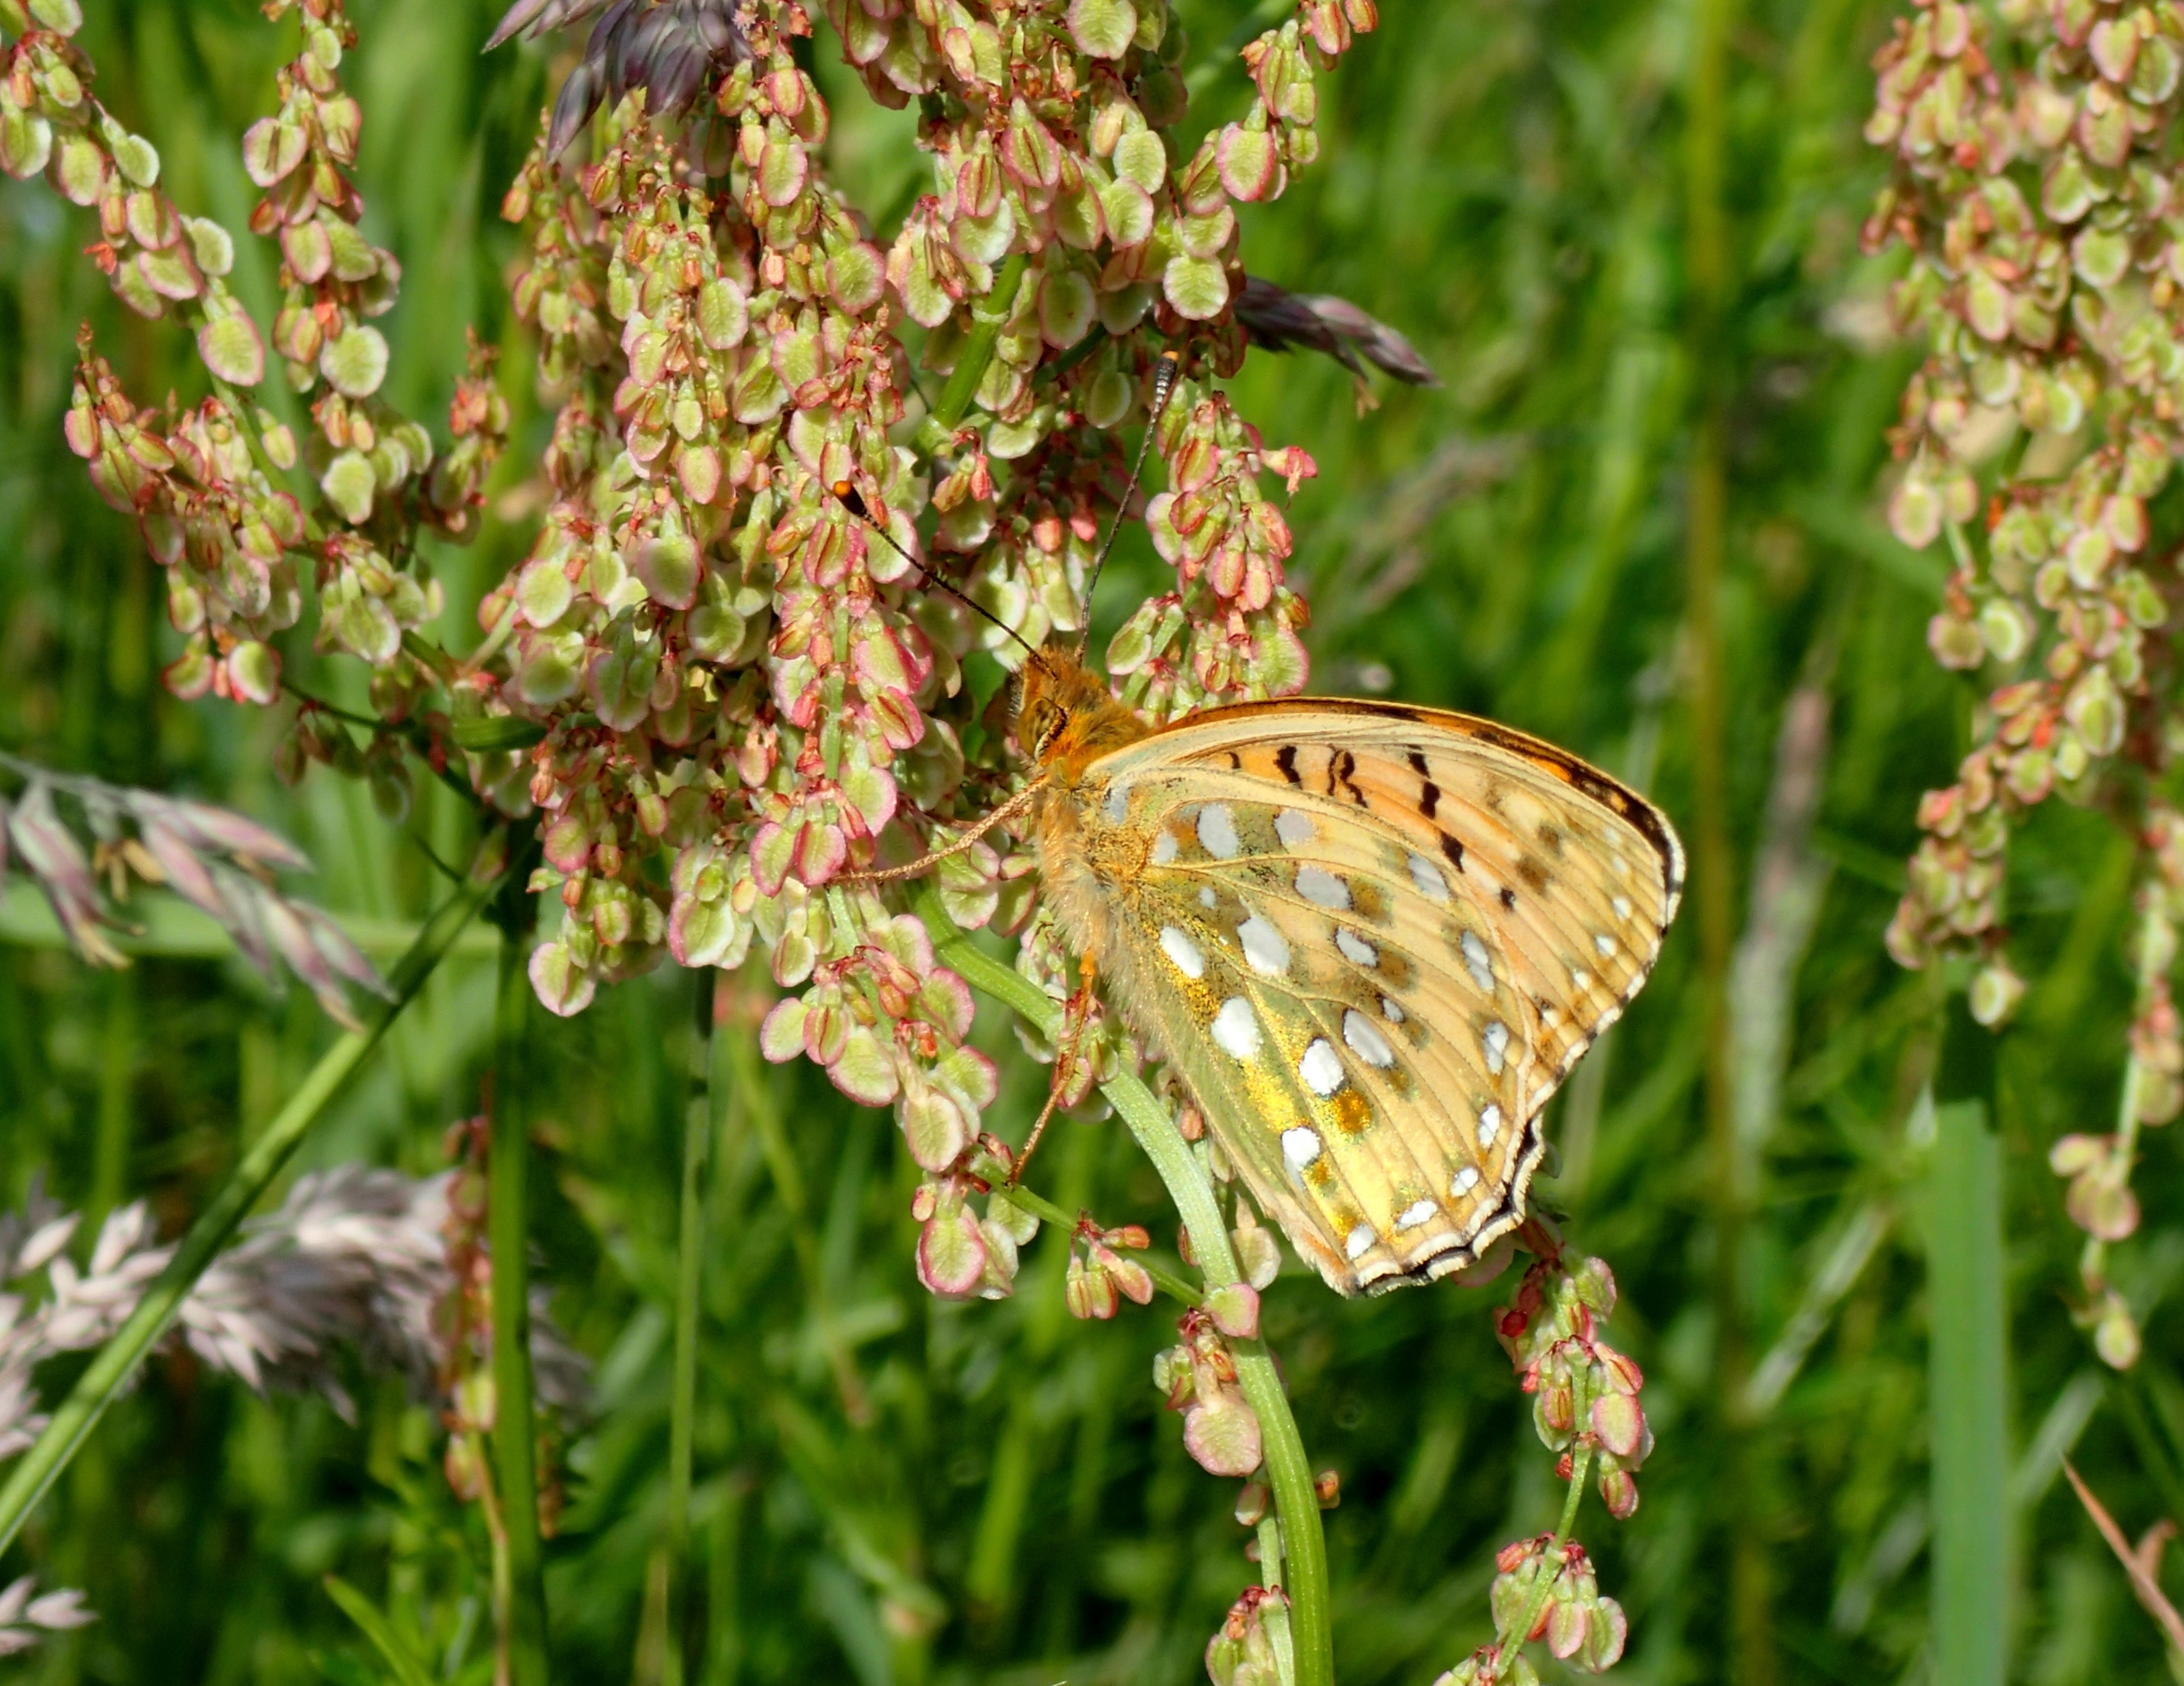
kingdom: Animalia
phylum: Arthropoda
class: Insecta
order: Lepidoptera
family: Nymphalidae
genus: Speyeria
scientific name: Speyeria aglaja
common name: Markperlemorsommerfugl
